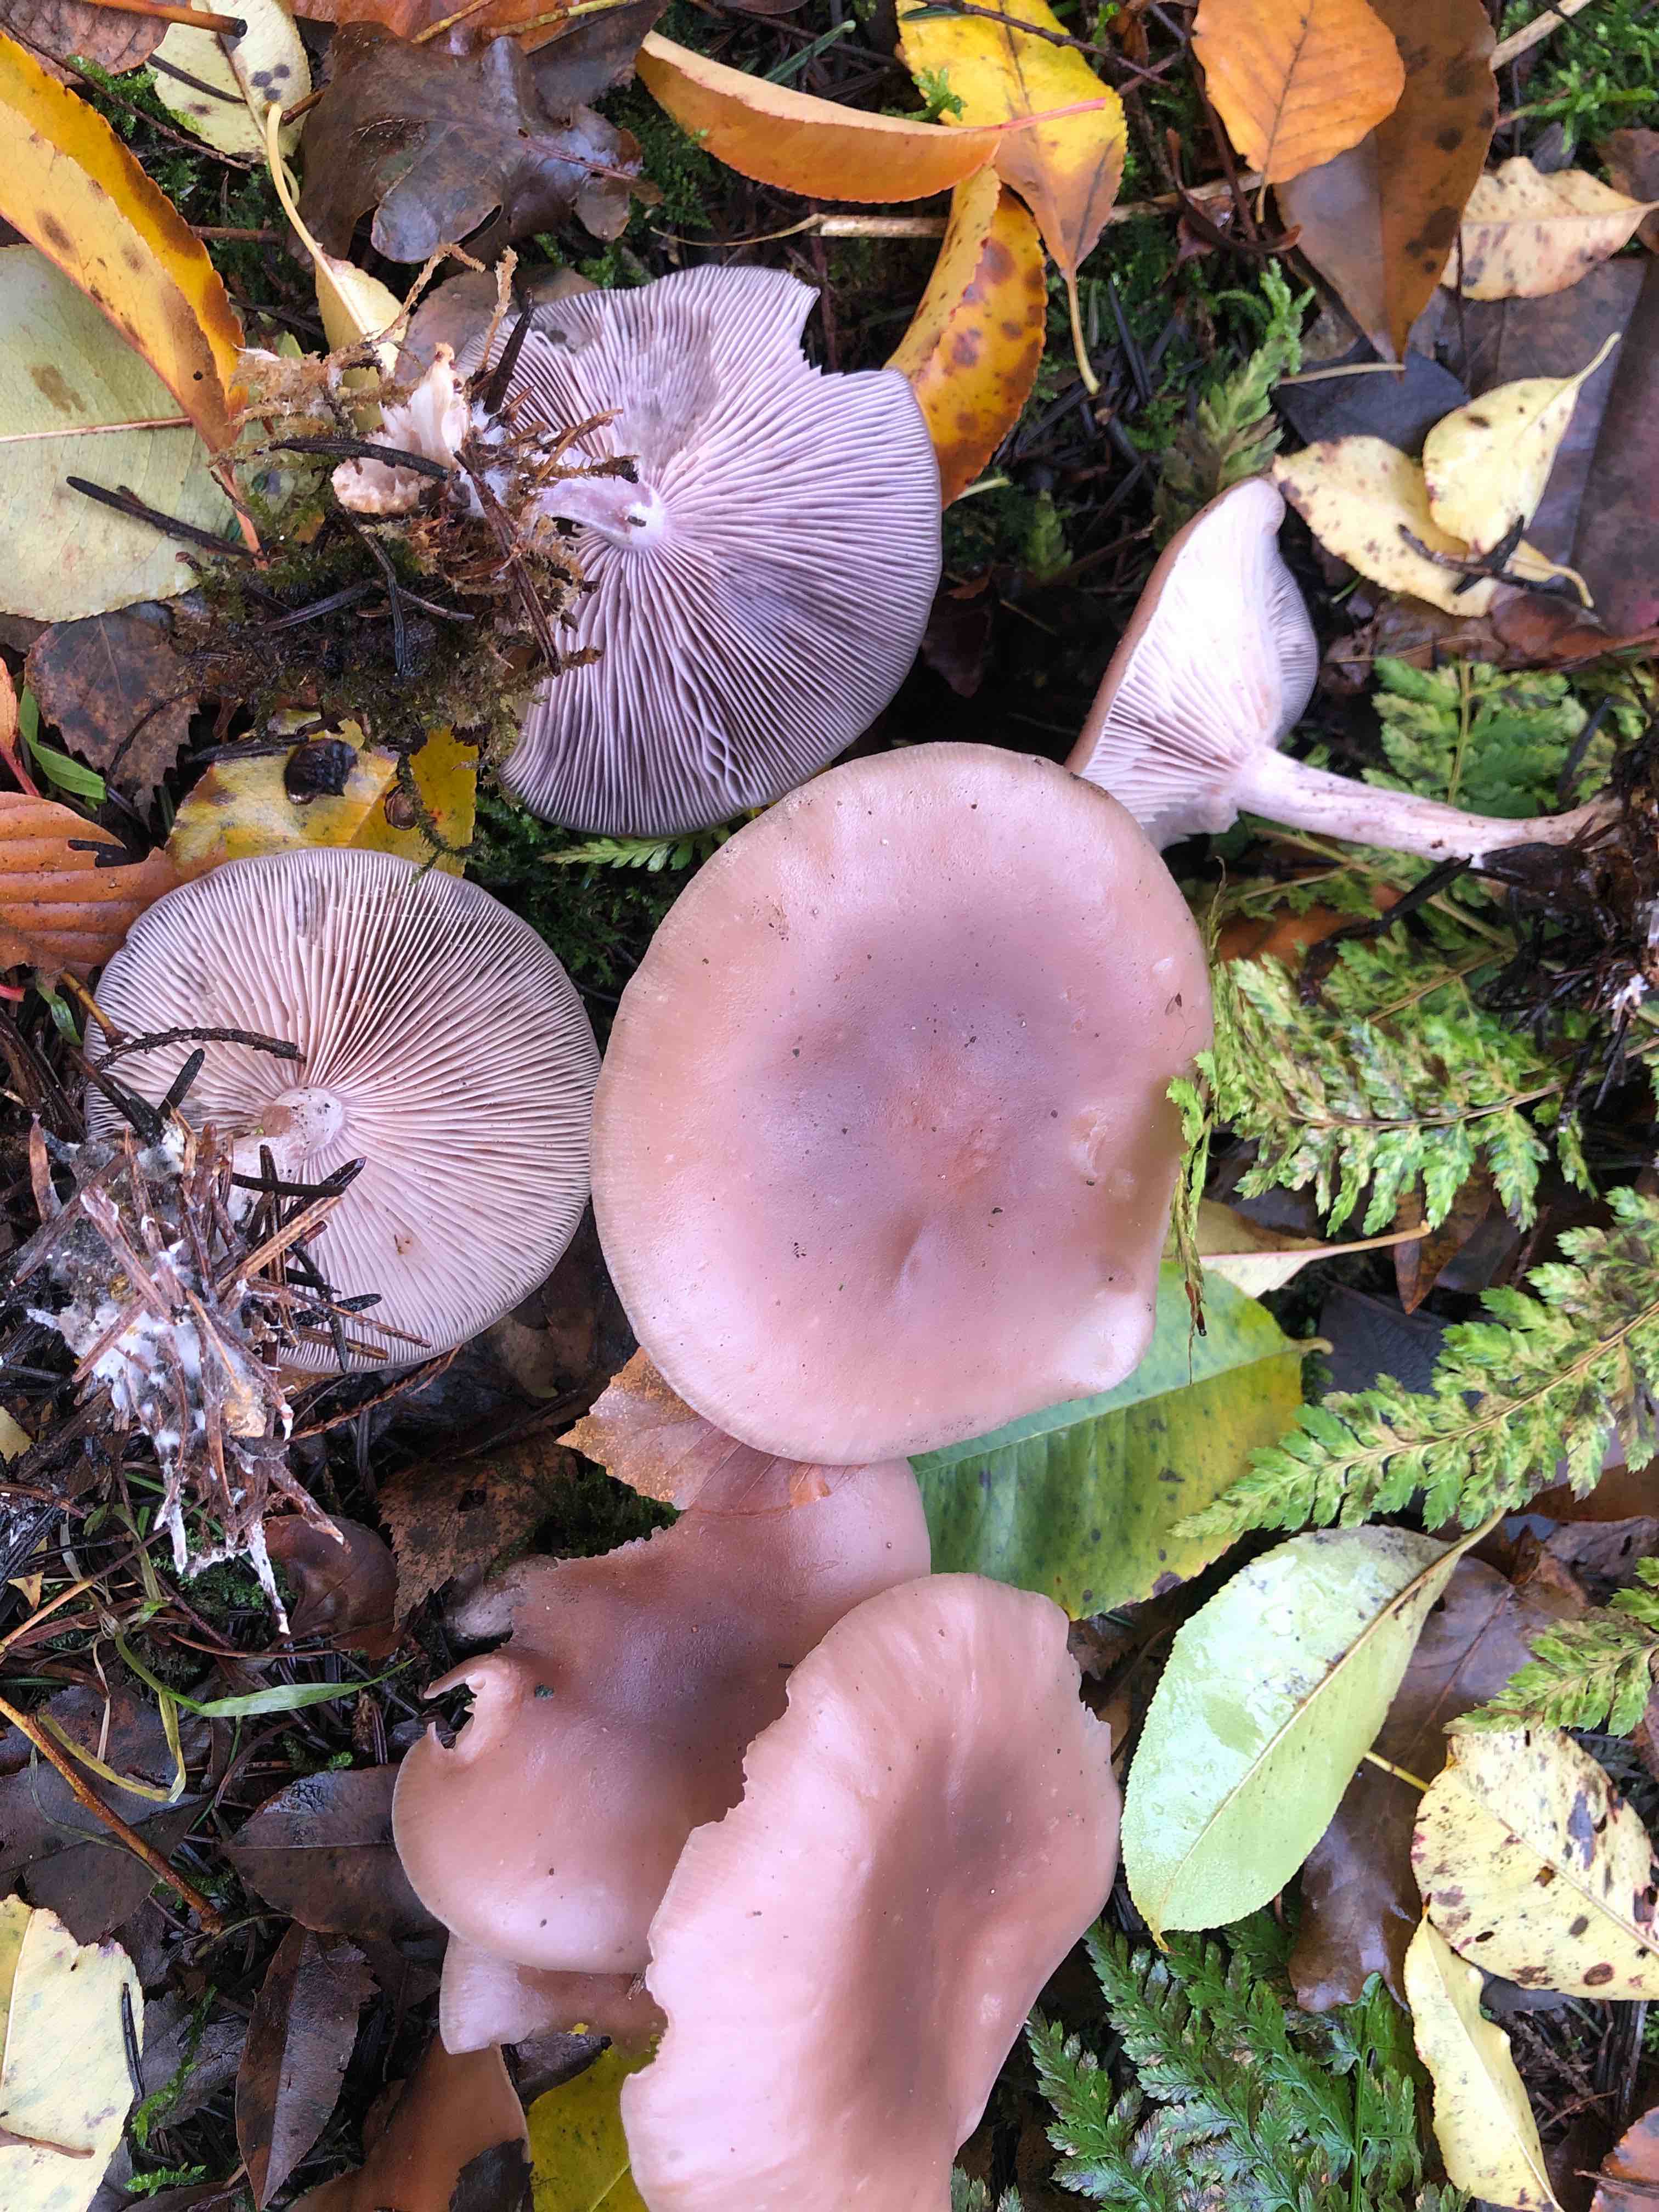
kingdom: Fungi
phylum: Basidiomycota
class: Agaricomycetes
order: Agaricales
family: Tricholomataceae
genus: Lepista
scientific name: Lepista lilacea
